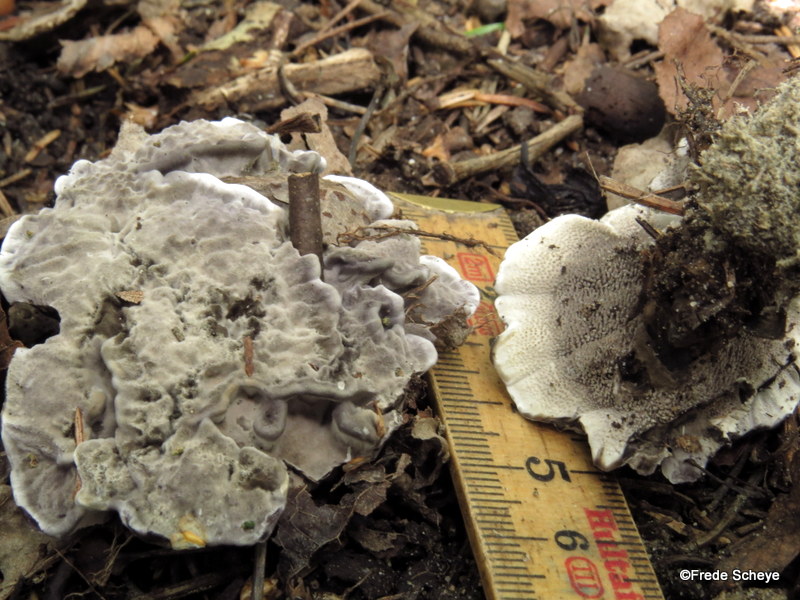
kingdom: Fungi
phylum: Basidiomycota
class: Agaricomycetes
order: Thelephorales
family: Thelephoraceae
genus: Phellodon
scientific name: Phellodon
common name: mørk duftpigsvamp
